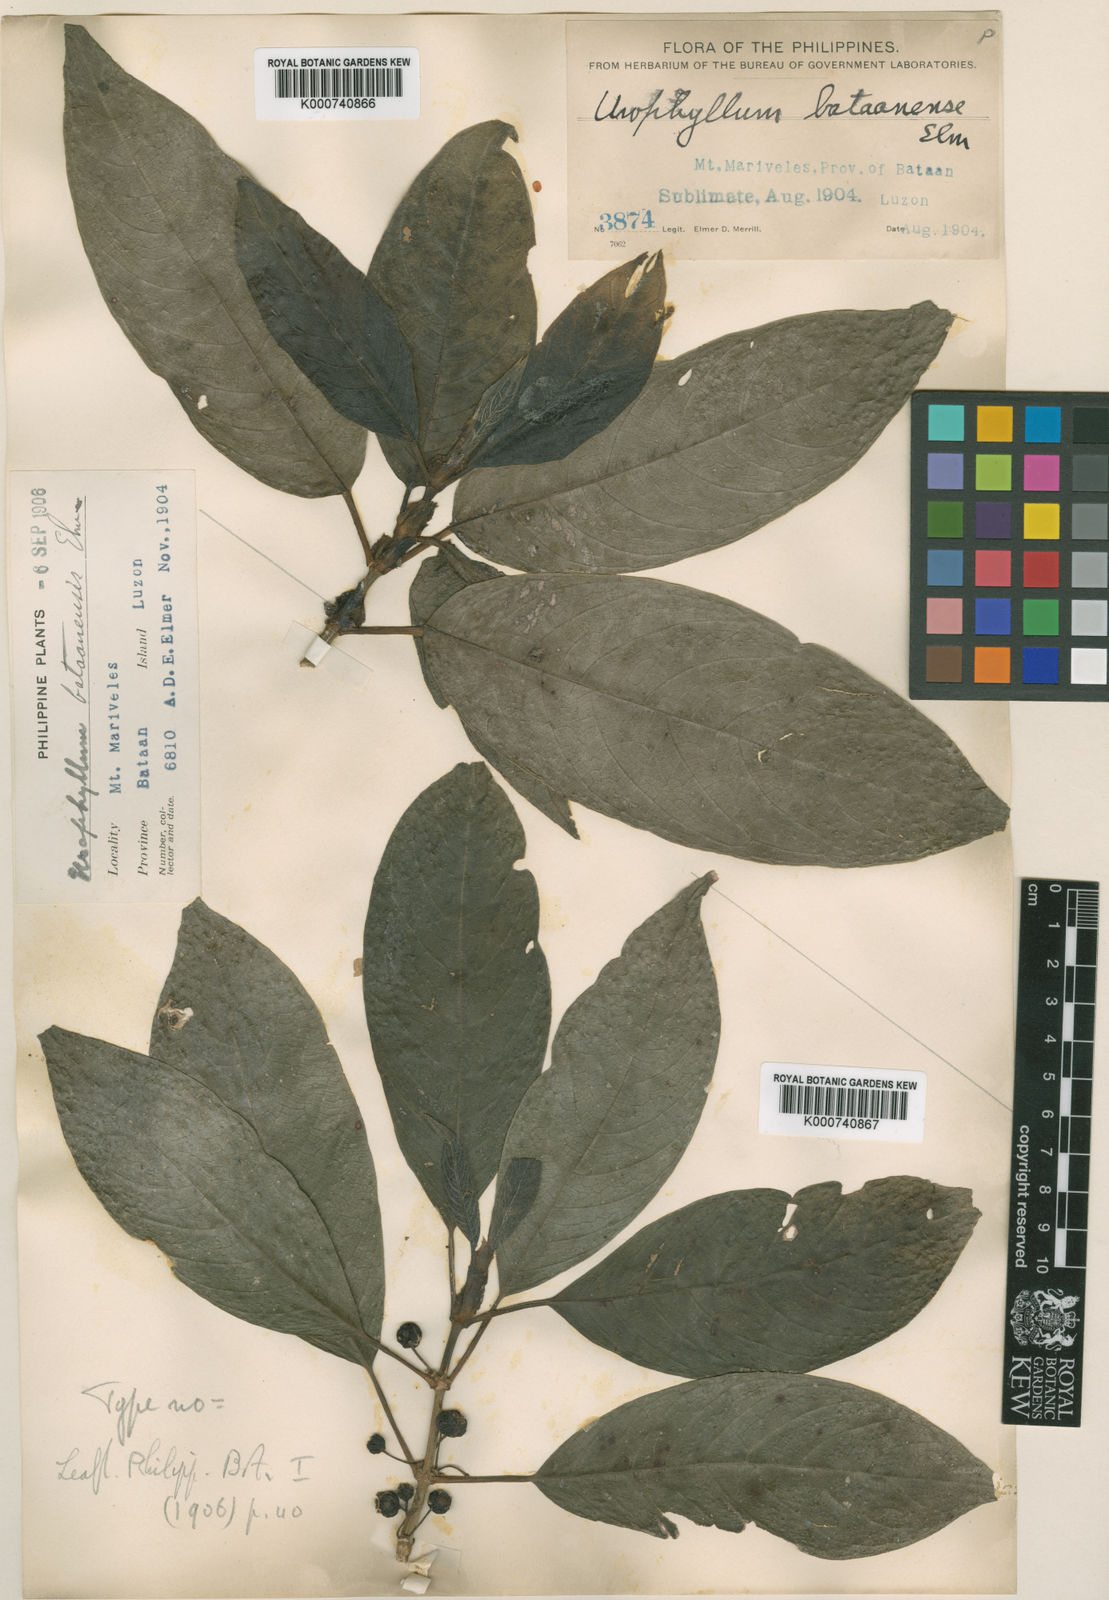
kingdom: Plantae
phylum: Tracheophyta
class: Magnoliopsida
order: Gentianales
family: Rubiaceae
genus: Urophyllum
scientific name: Urophyllum bataanense
